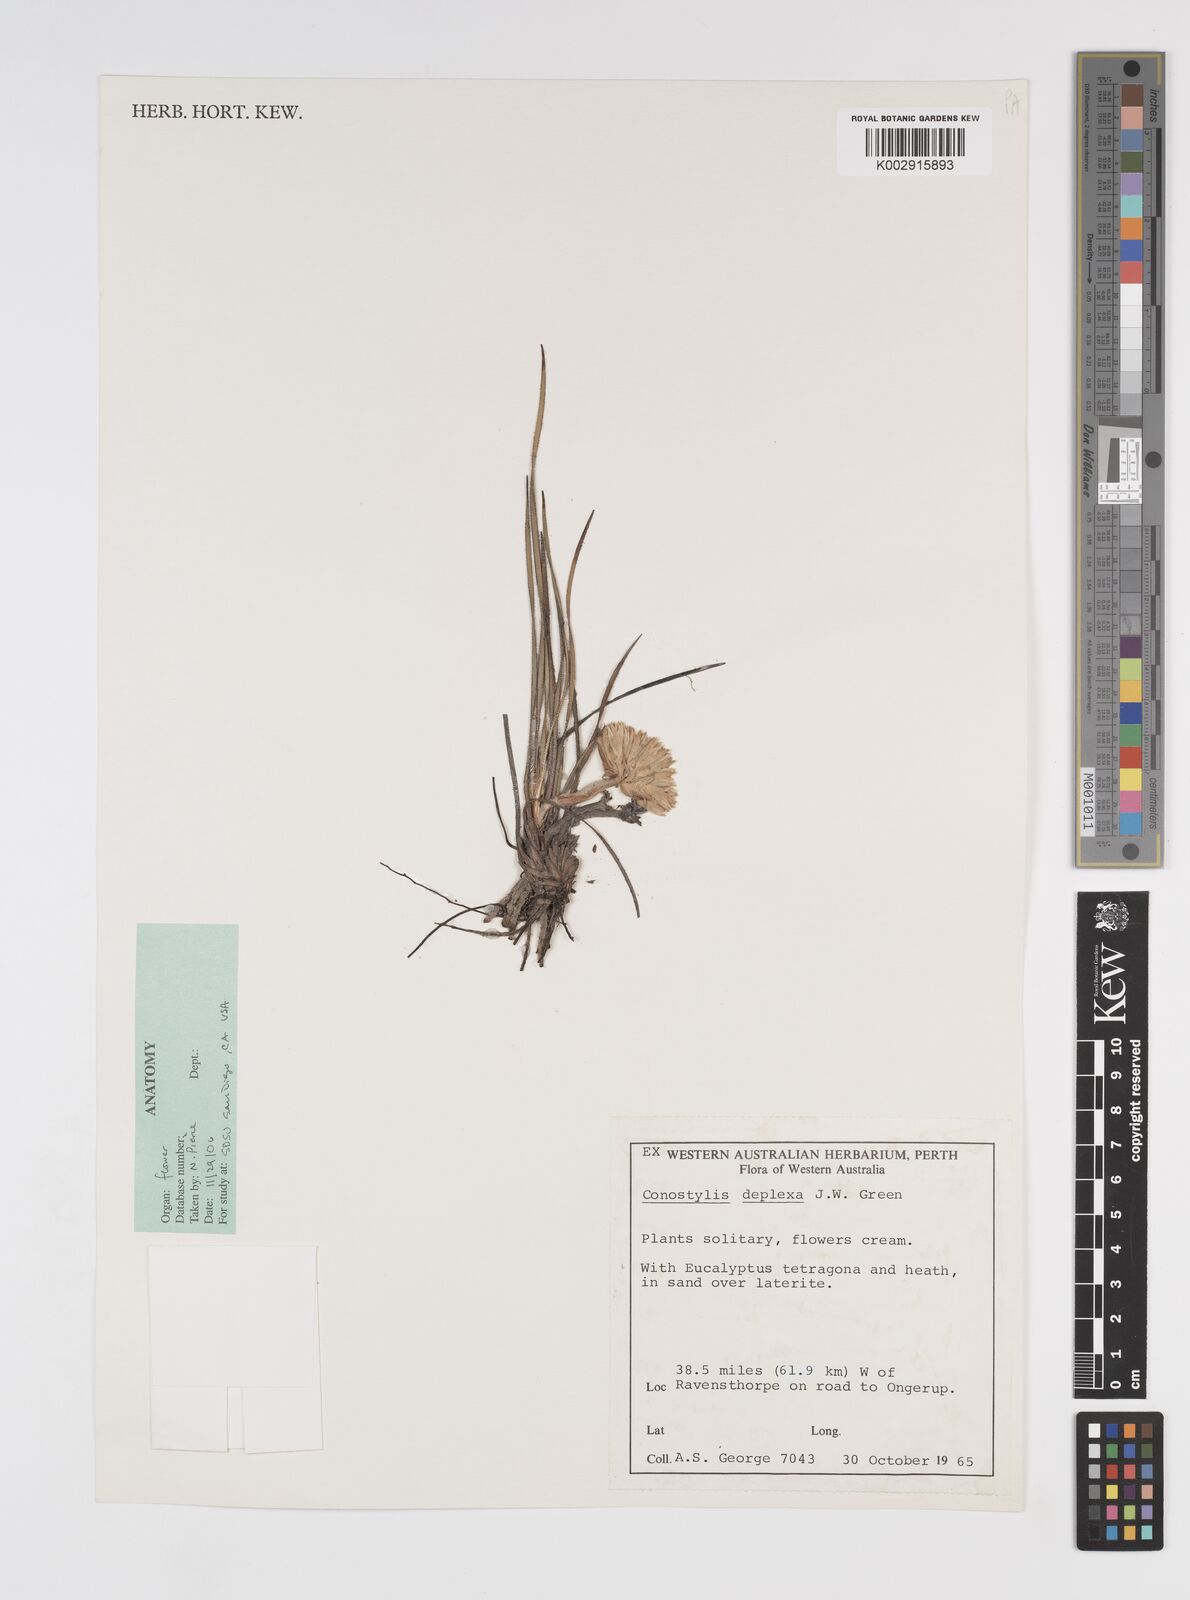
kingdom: Plantae
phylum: Tracheophyta
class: Liliopsida
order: Commelinales
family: Haemodoraceae
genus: Conostylis
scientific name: Conostylis deplexa
